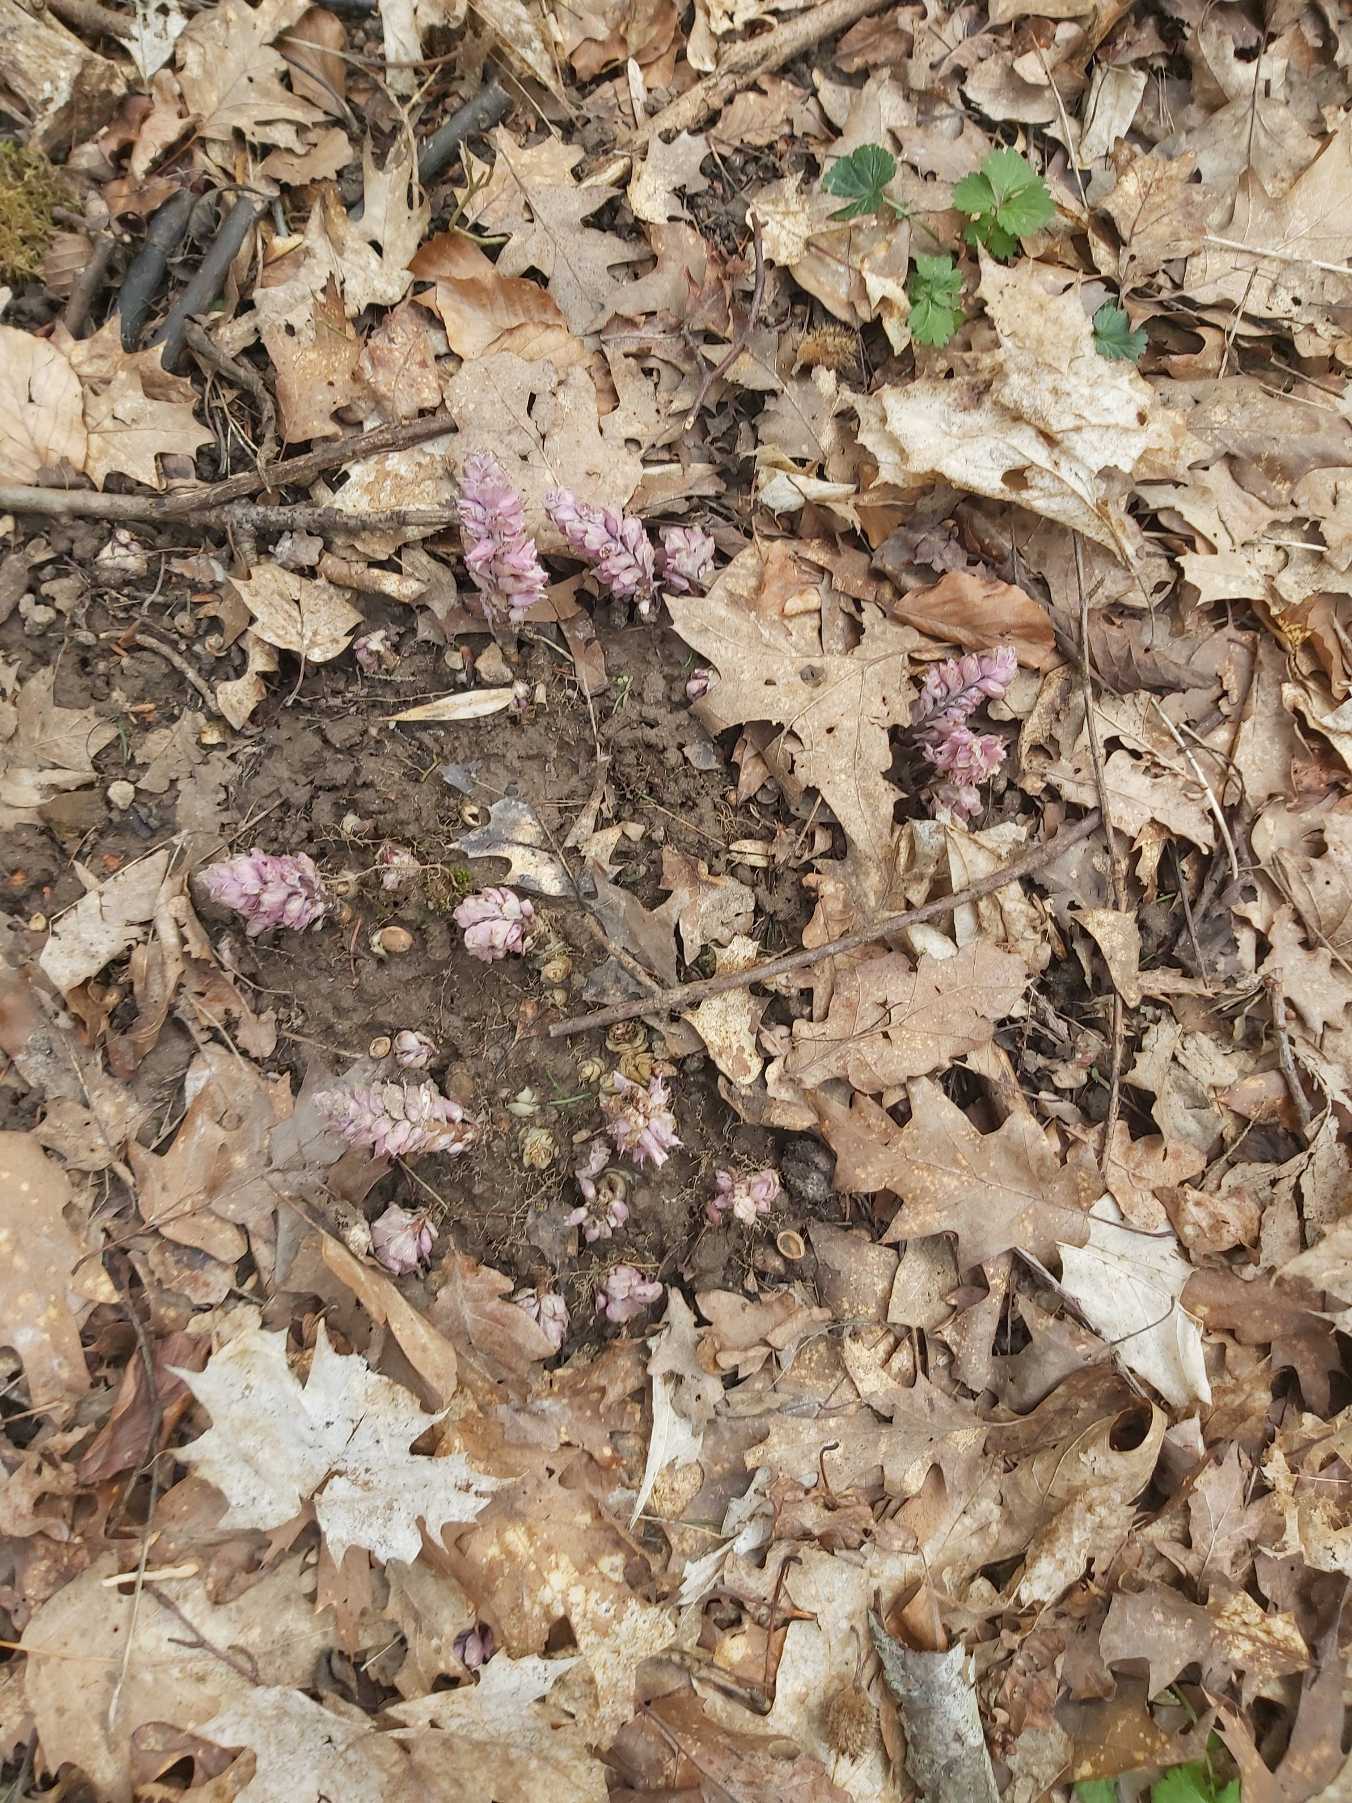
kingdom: Plantae
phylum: Tracheophyta
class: Magnoliopsida
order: Lamiales
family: Orobanchaceae
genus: Lathraea
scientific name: Lathraea squamaria
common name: Skælrod
